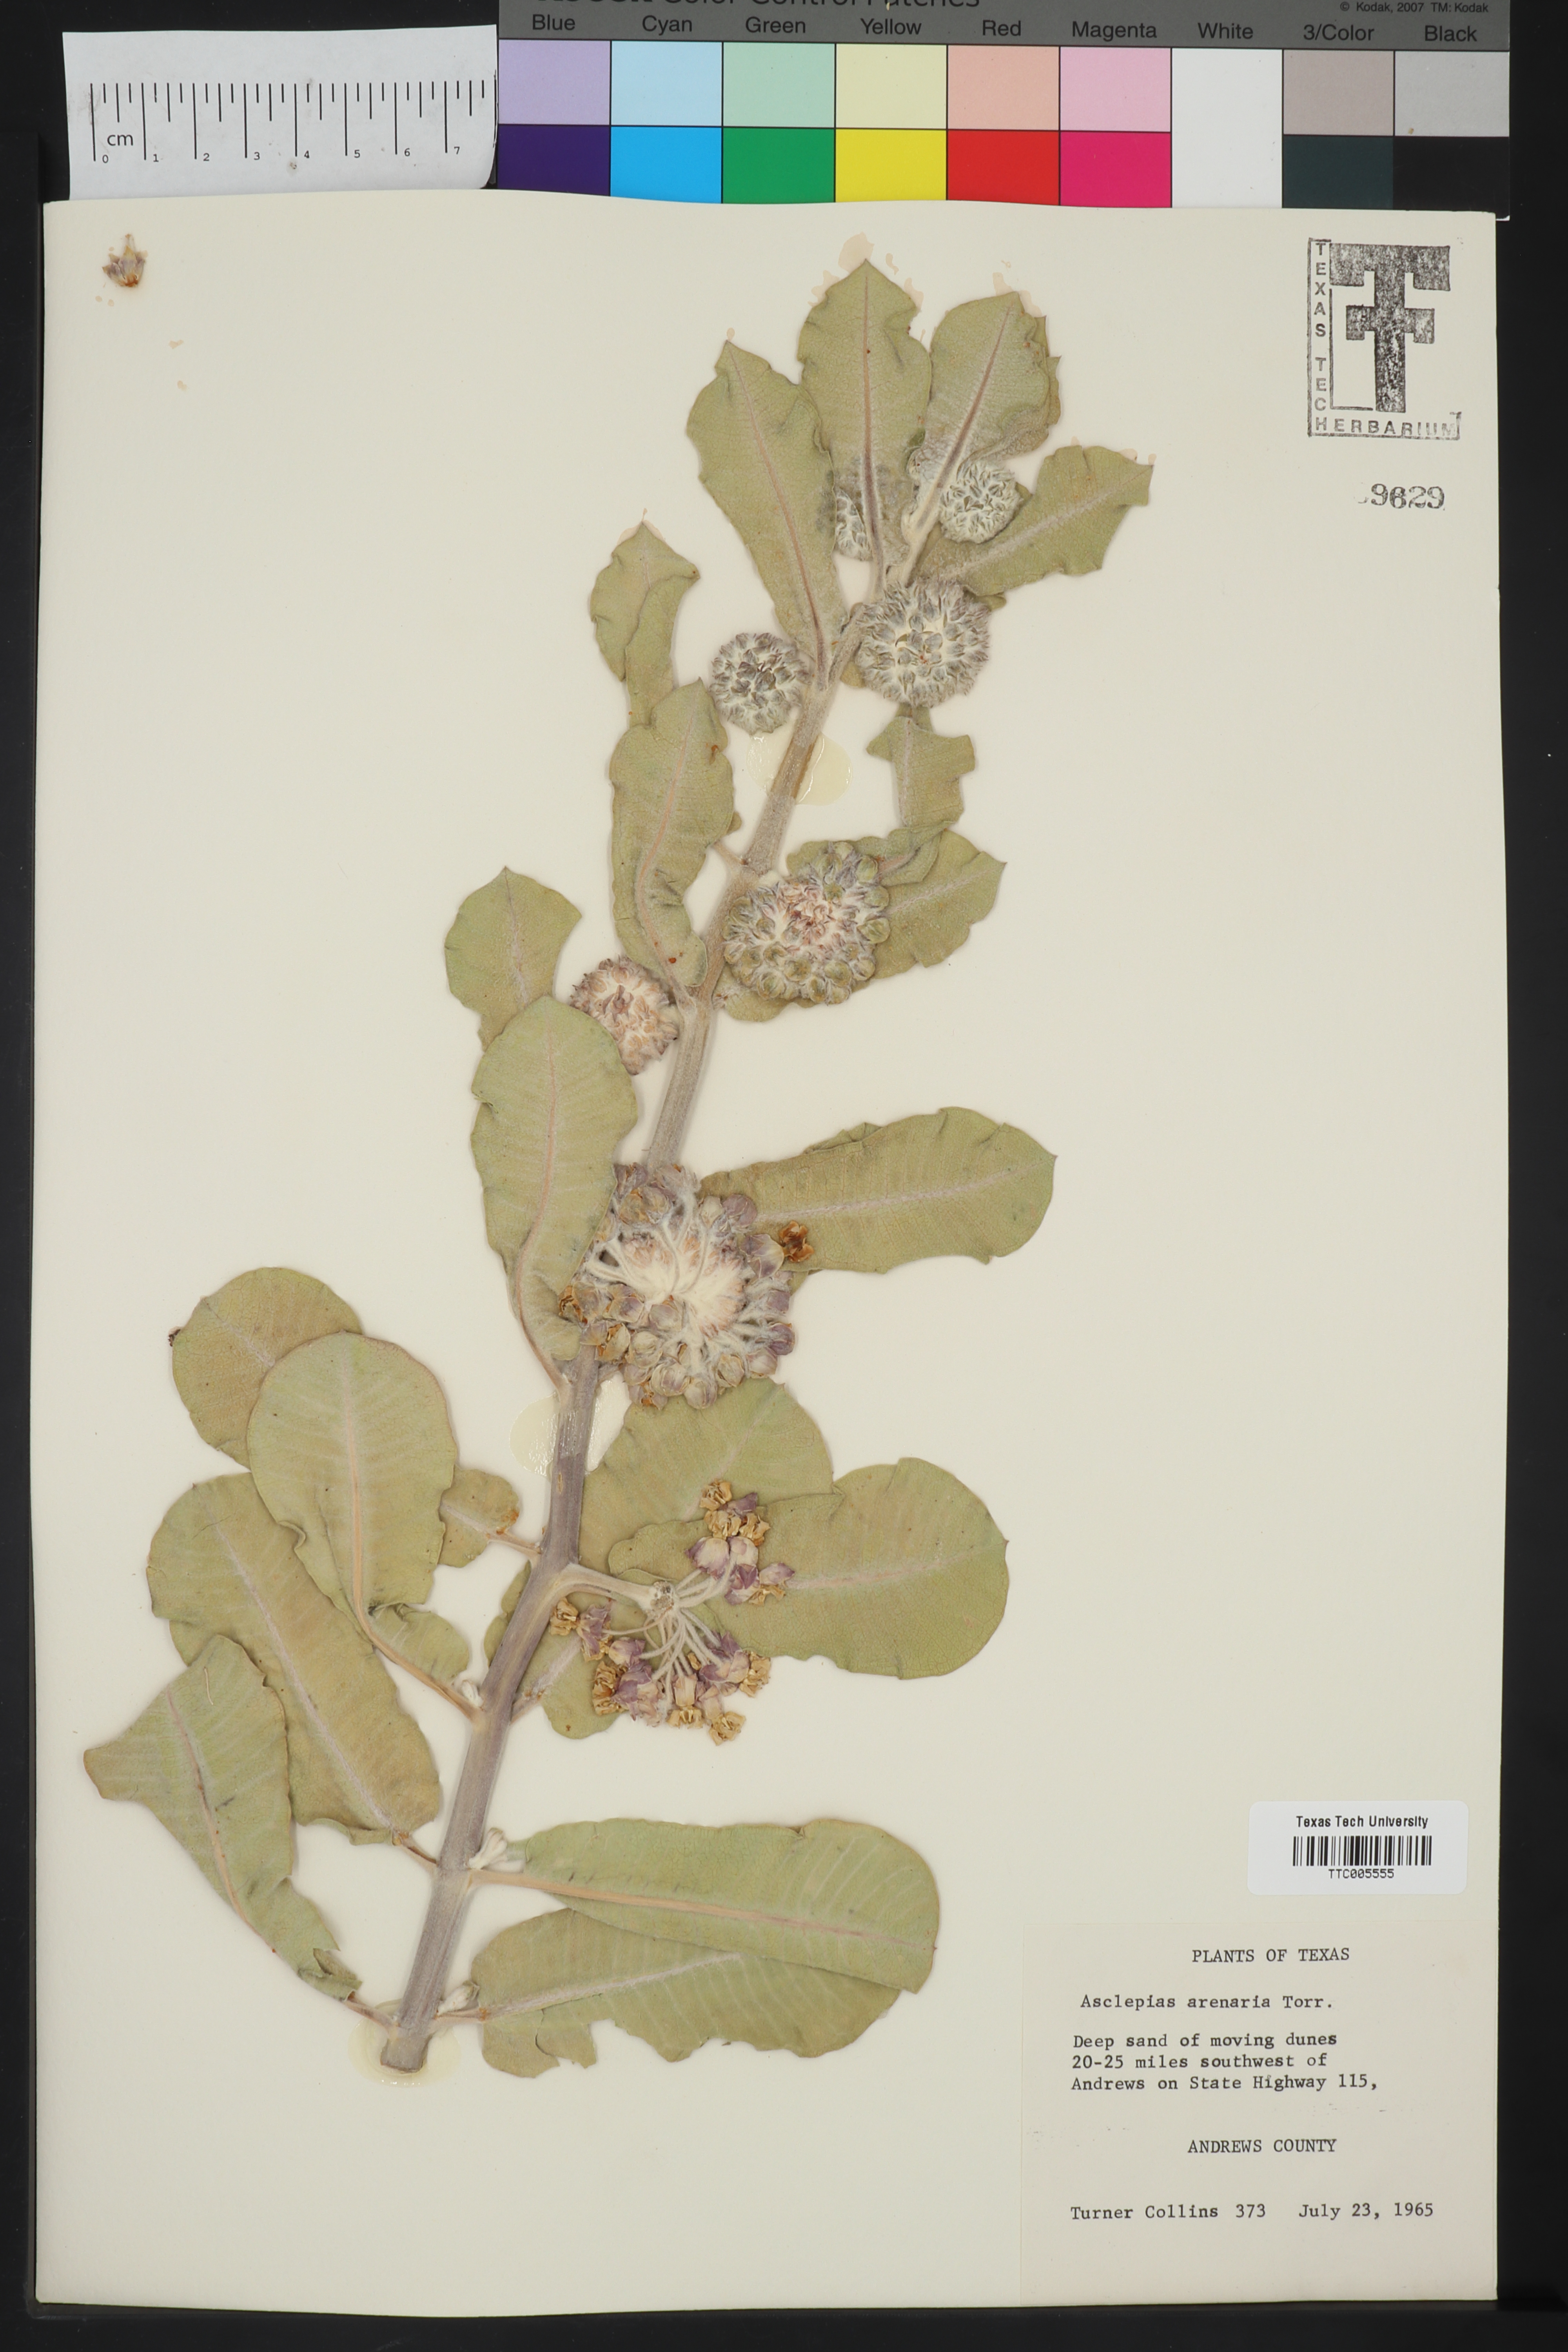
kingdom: Plantae
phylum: Tracheophyta
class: Magnoliopsida
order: Gentianales
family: Apocynaceae
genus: Asclepias
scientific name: Asclepias arenaria
